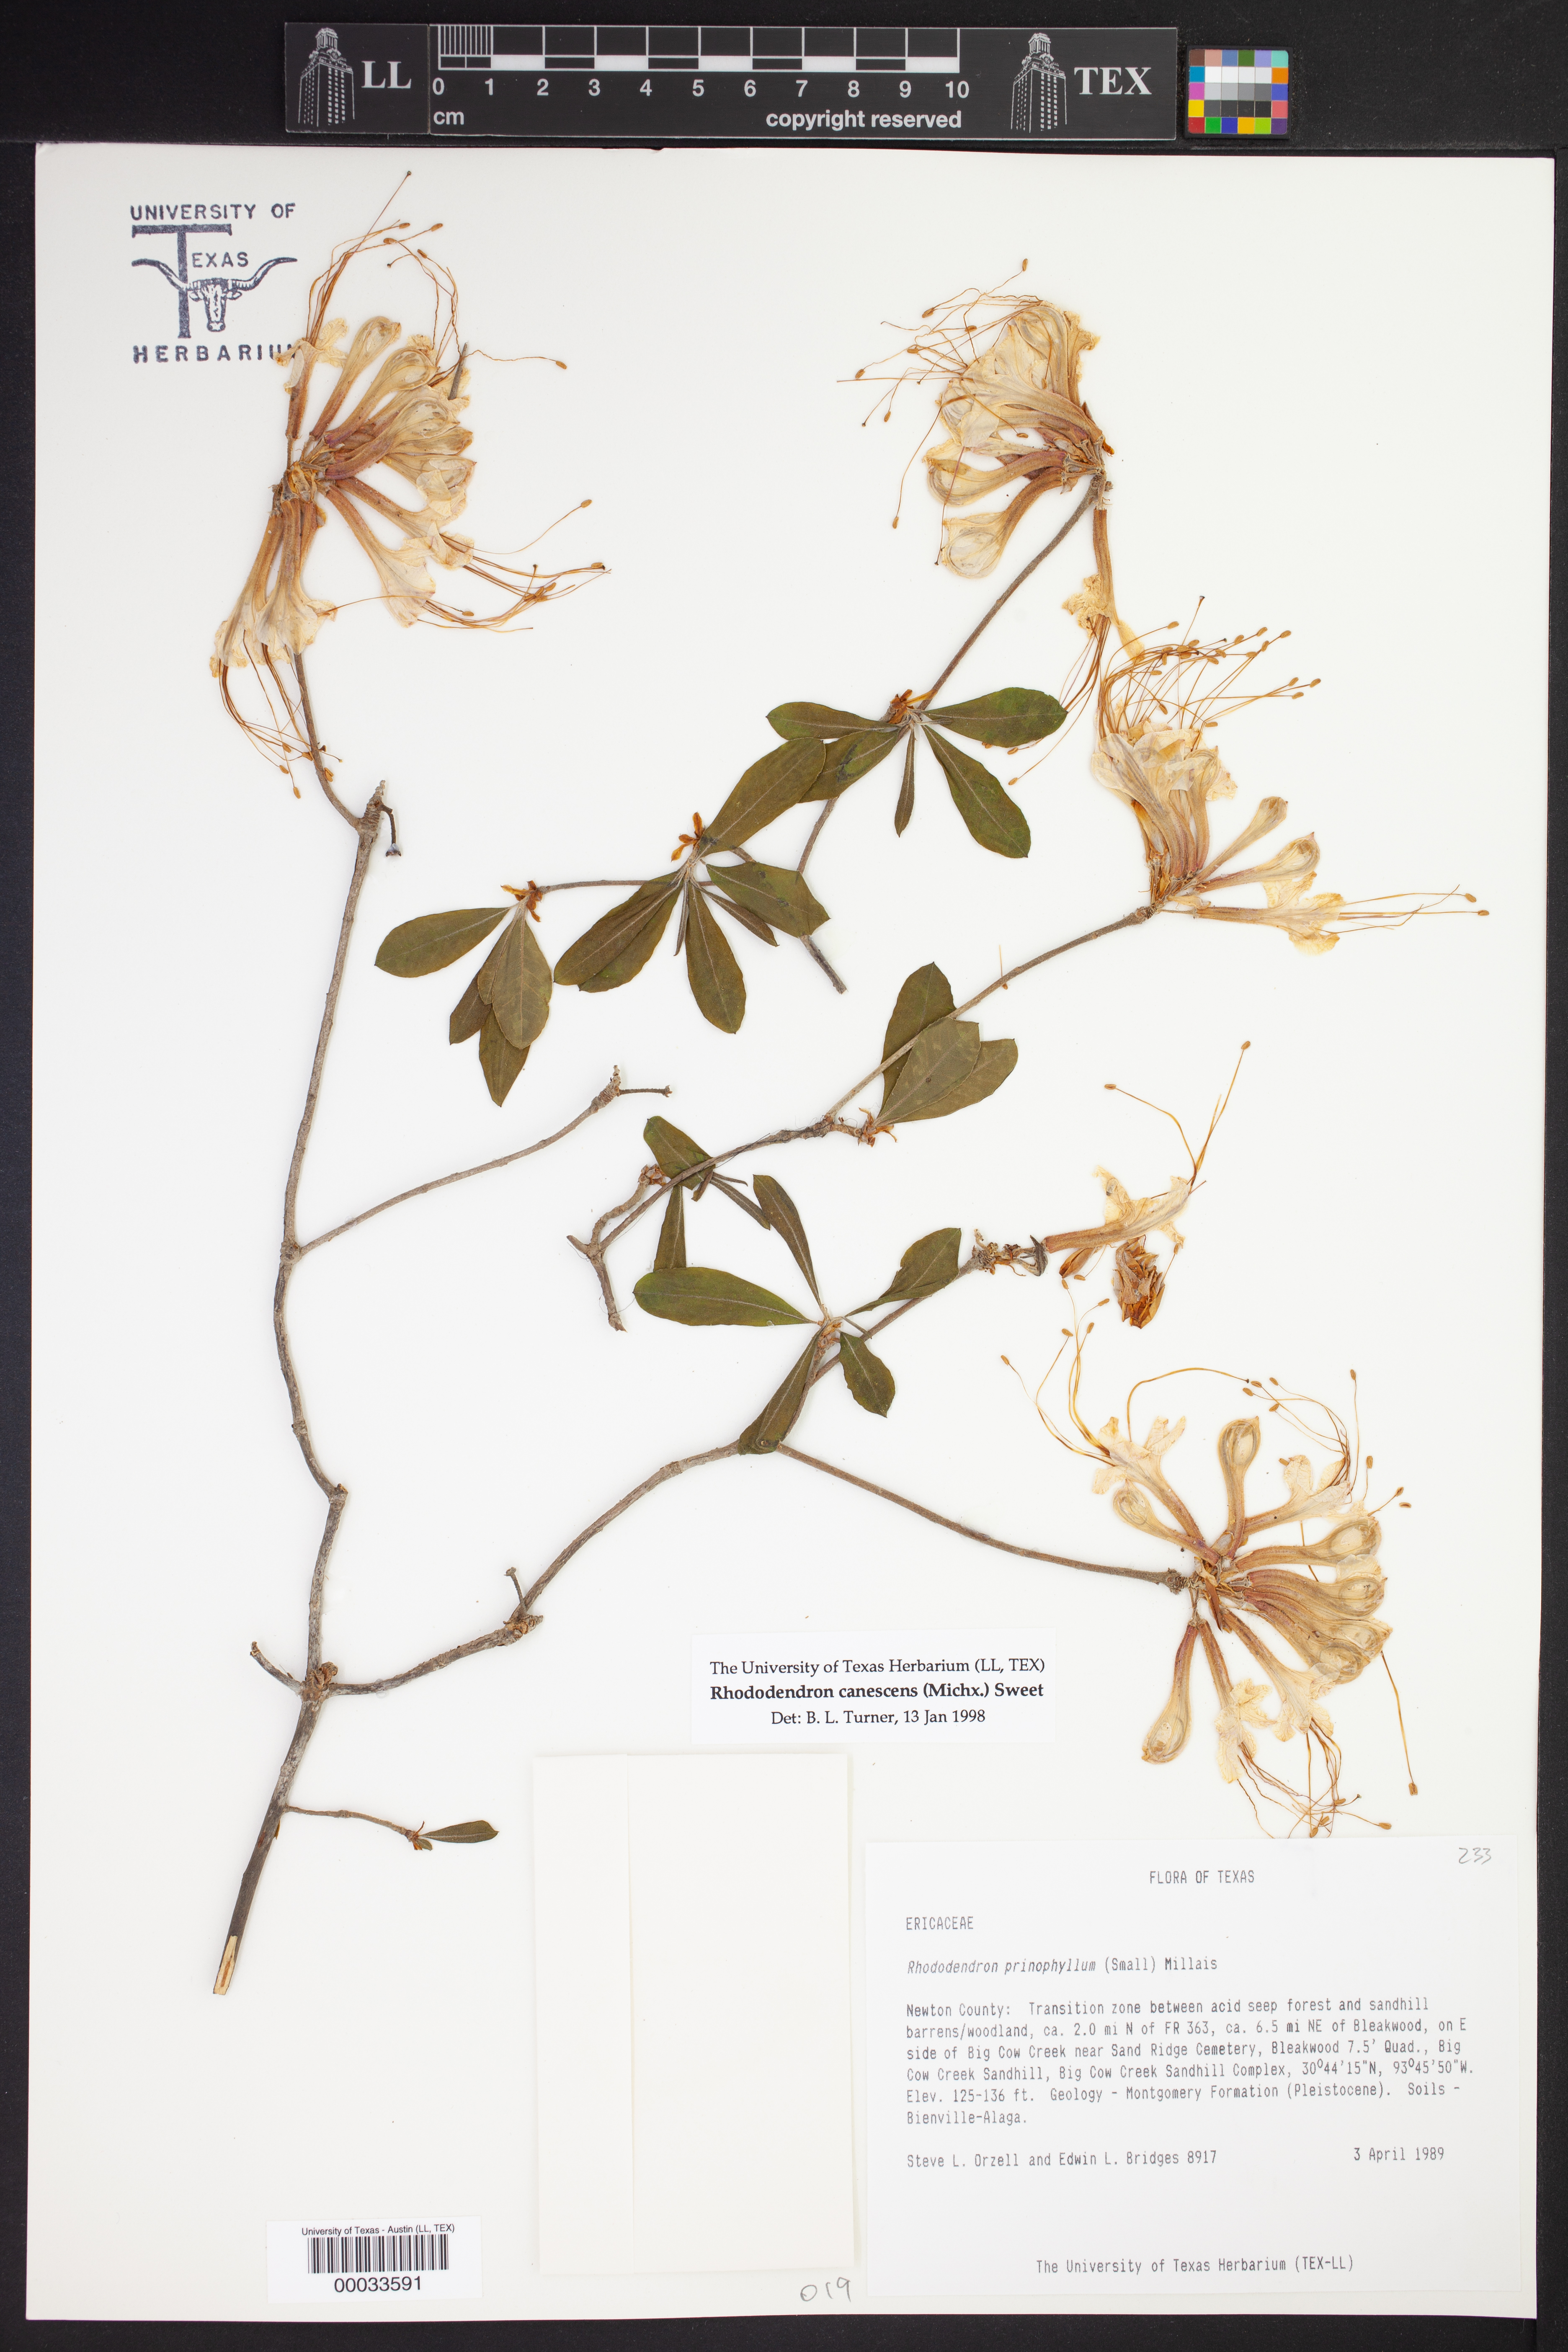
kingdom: Plantae
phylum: Tracheophyta
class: Magnoliopsida
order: Ericales
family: Ericaceae
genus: Rhododendron
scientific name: Rhododendron canescens
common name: Mountain azalea
